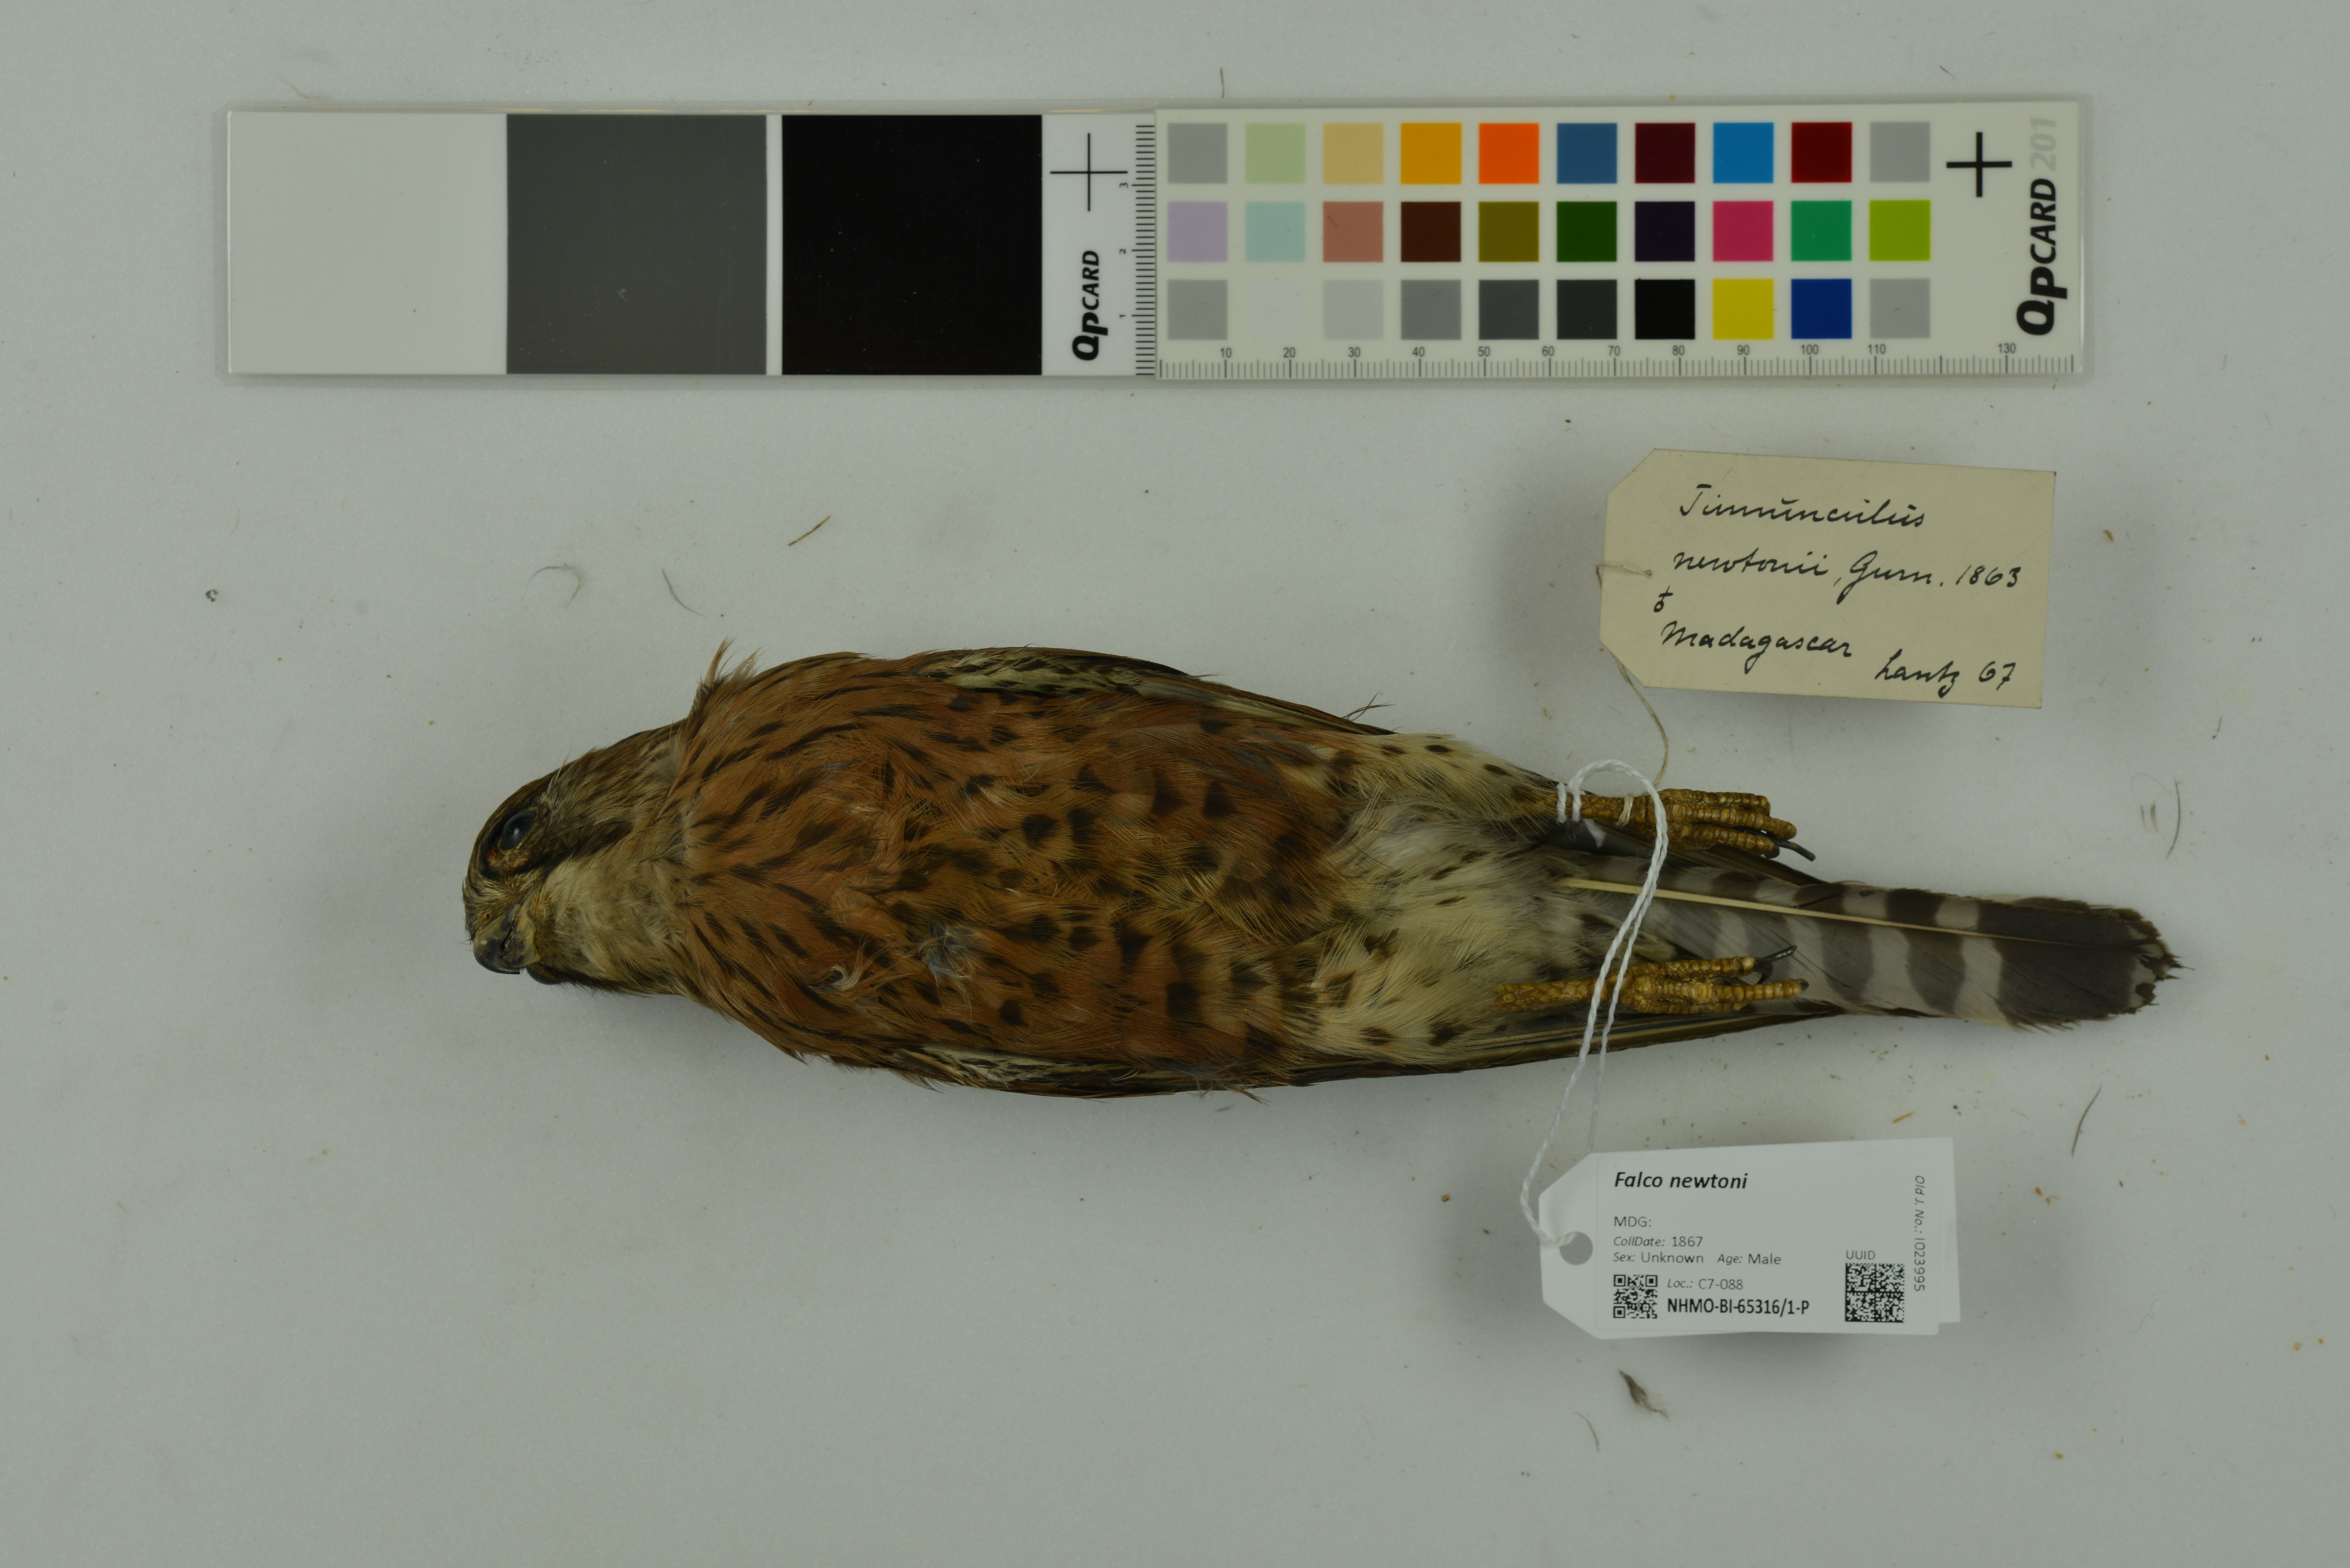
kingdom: Animalia
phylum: Chordata
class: Aves
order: Falconiformes
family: Falconidae
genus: Falco
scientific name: Falco newtoni
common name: Malagasy kestrel
